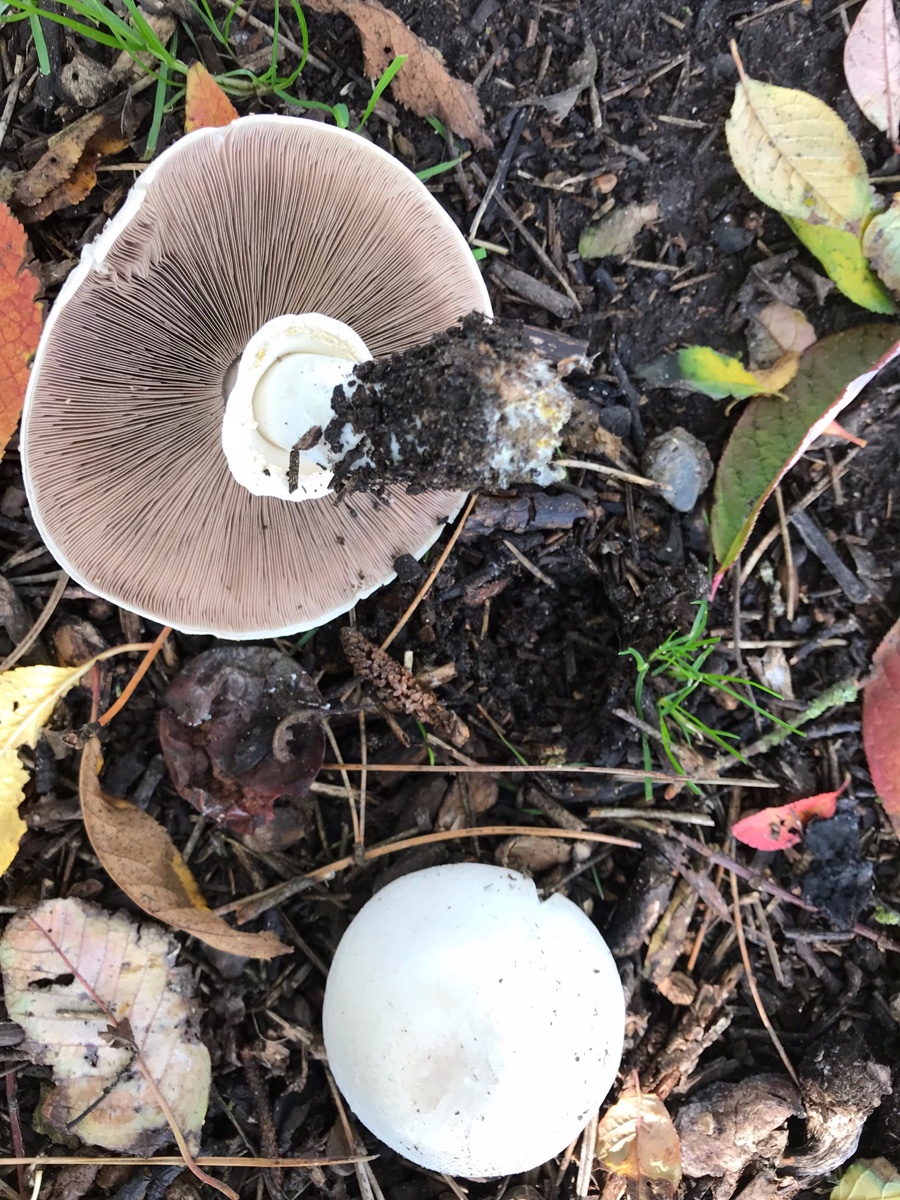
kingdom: Fungi
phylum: Basidiomycota
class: Agaricomycetes
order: Agaricales
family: Agaricaceae
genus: Agaricus
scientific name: Agaricus xanthodermus
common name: karbol-champignon
